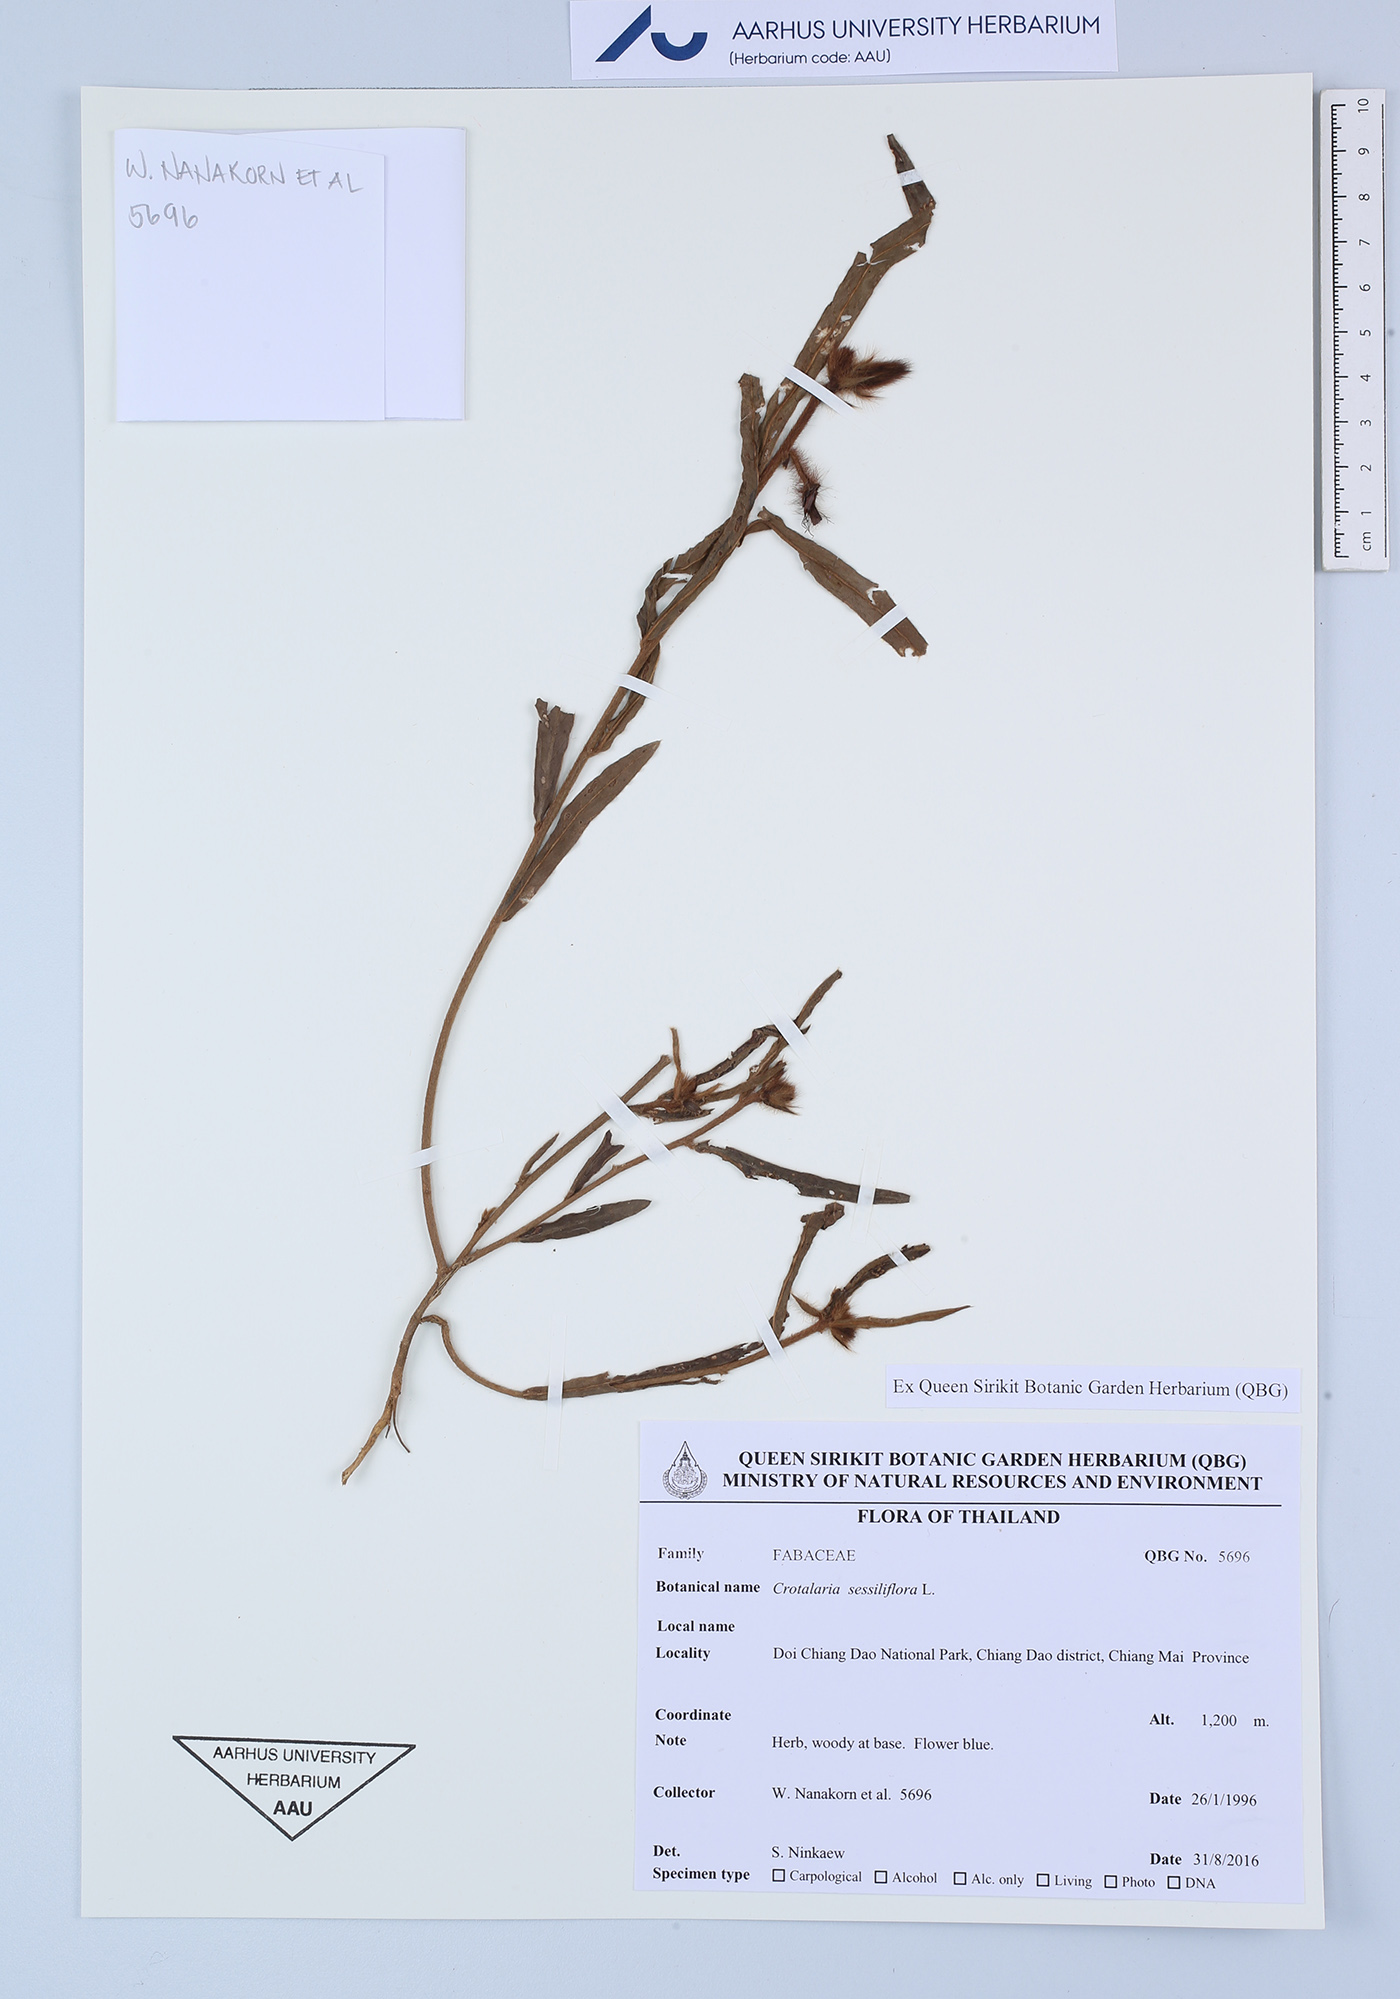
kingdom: Plantae
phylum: Tracheophyta
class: Magnoliopsida
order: Fabales
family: Fabaceae
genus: Crotalaria
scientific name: Crotalaria sessiliflora
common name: Rattlebox
